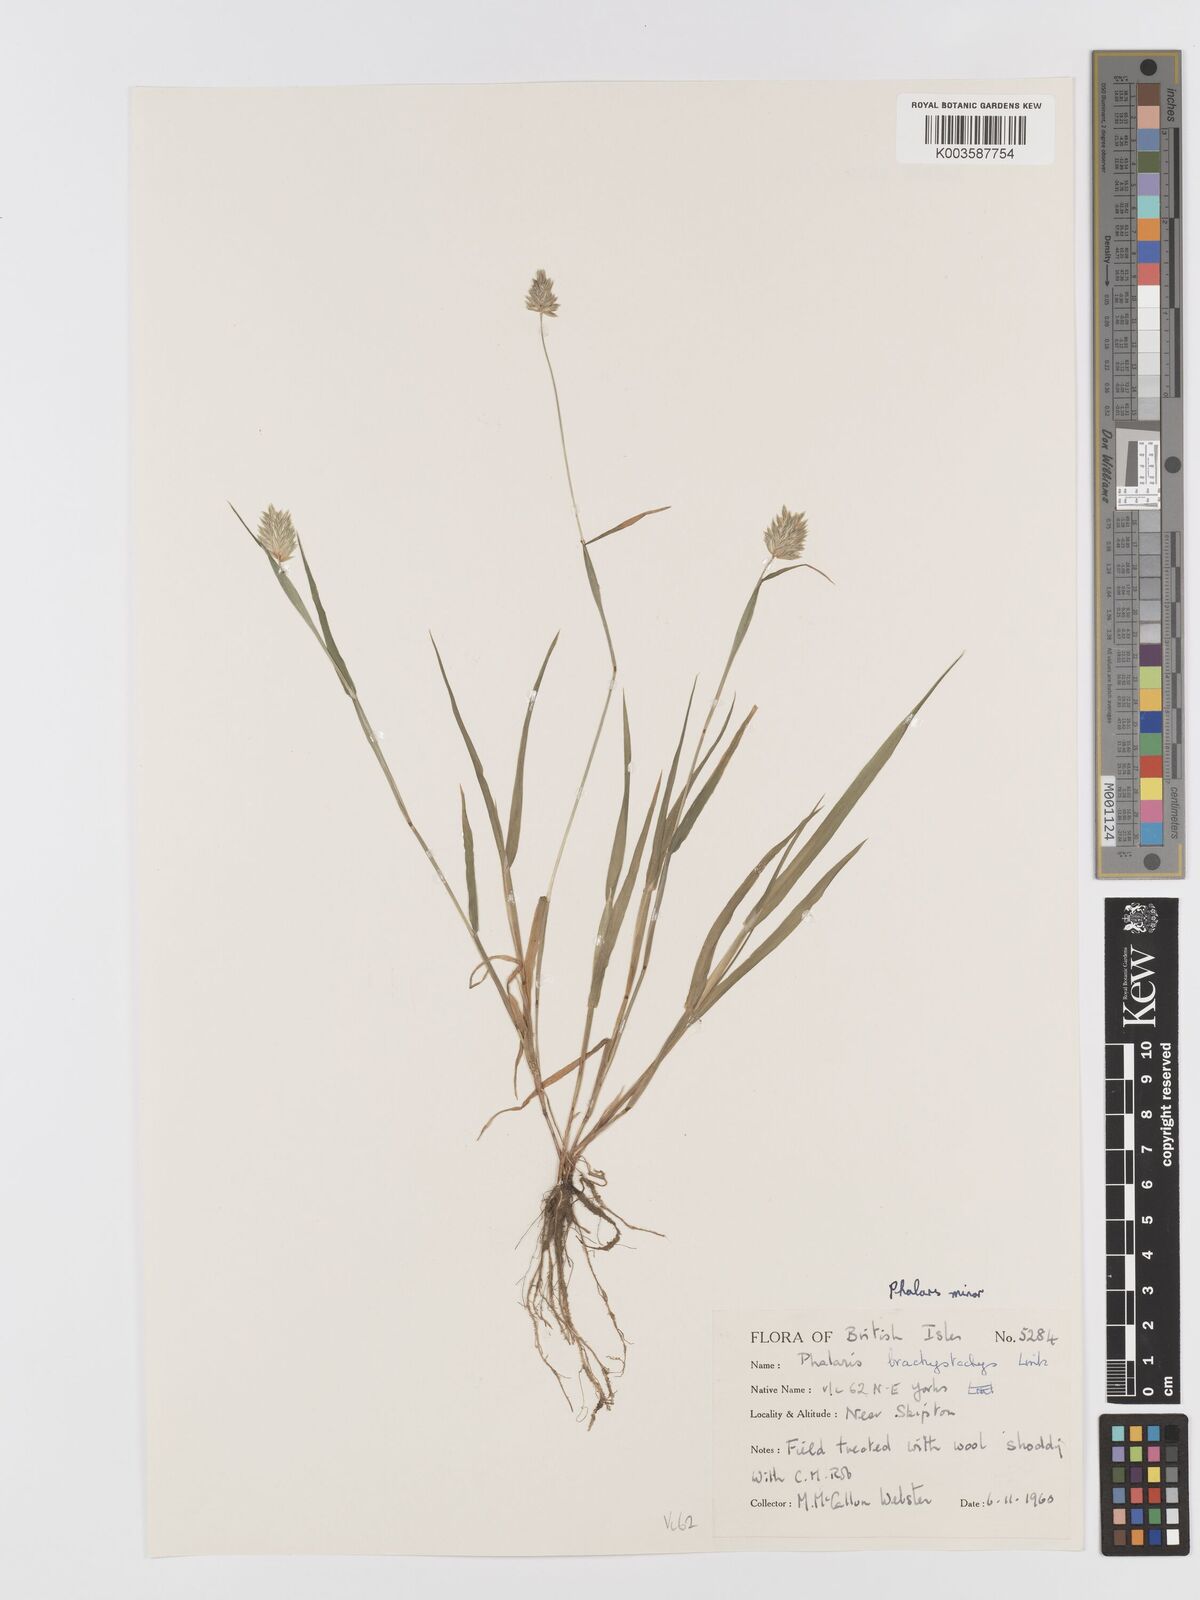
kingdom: Plantae
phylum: Tracheophyta
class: Liliopsida
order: Poales
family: Poaceae
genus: Phalaris
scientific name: Phalaris minor
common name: Littleseed canarygrass
